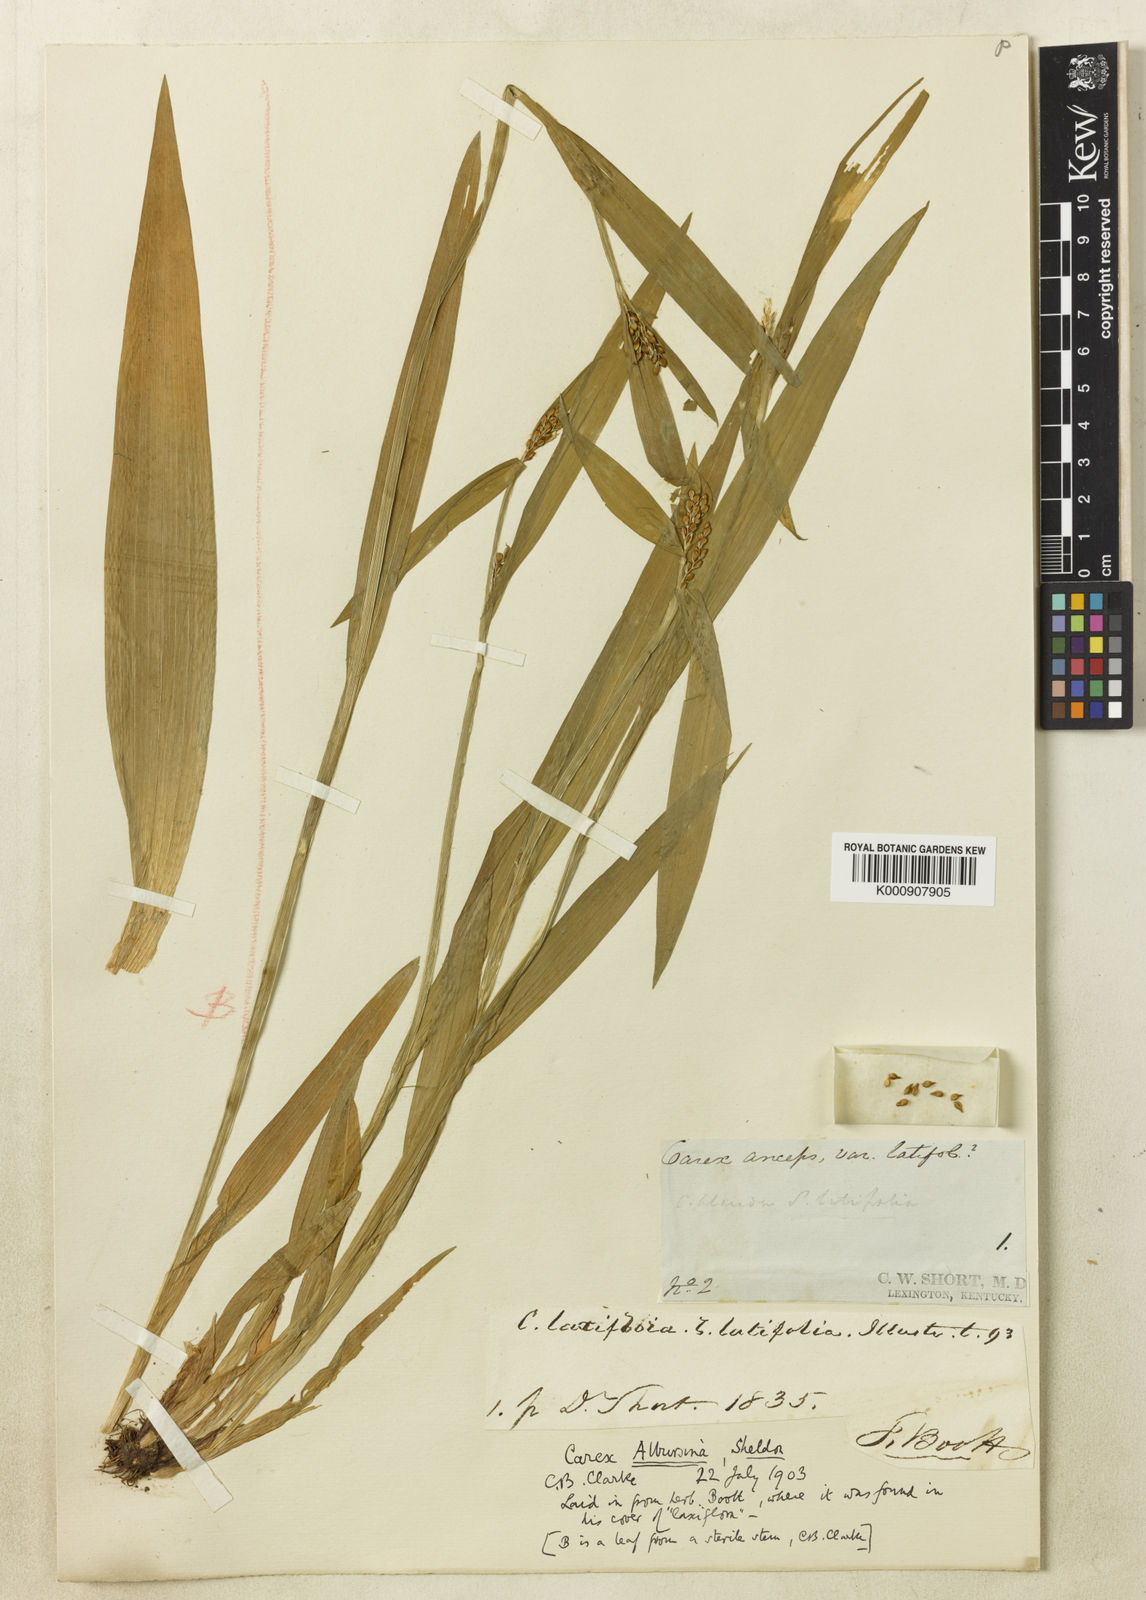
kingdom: Plantae
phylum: Tracheophyta
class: Liliopsida
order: Poales
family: Cyperaceae
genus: Carex
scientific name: Carex albursina
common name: Blunt-scale wood sedge
